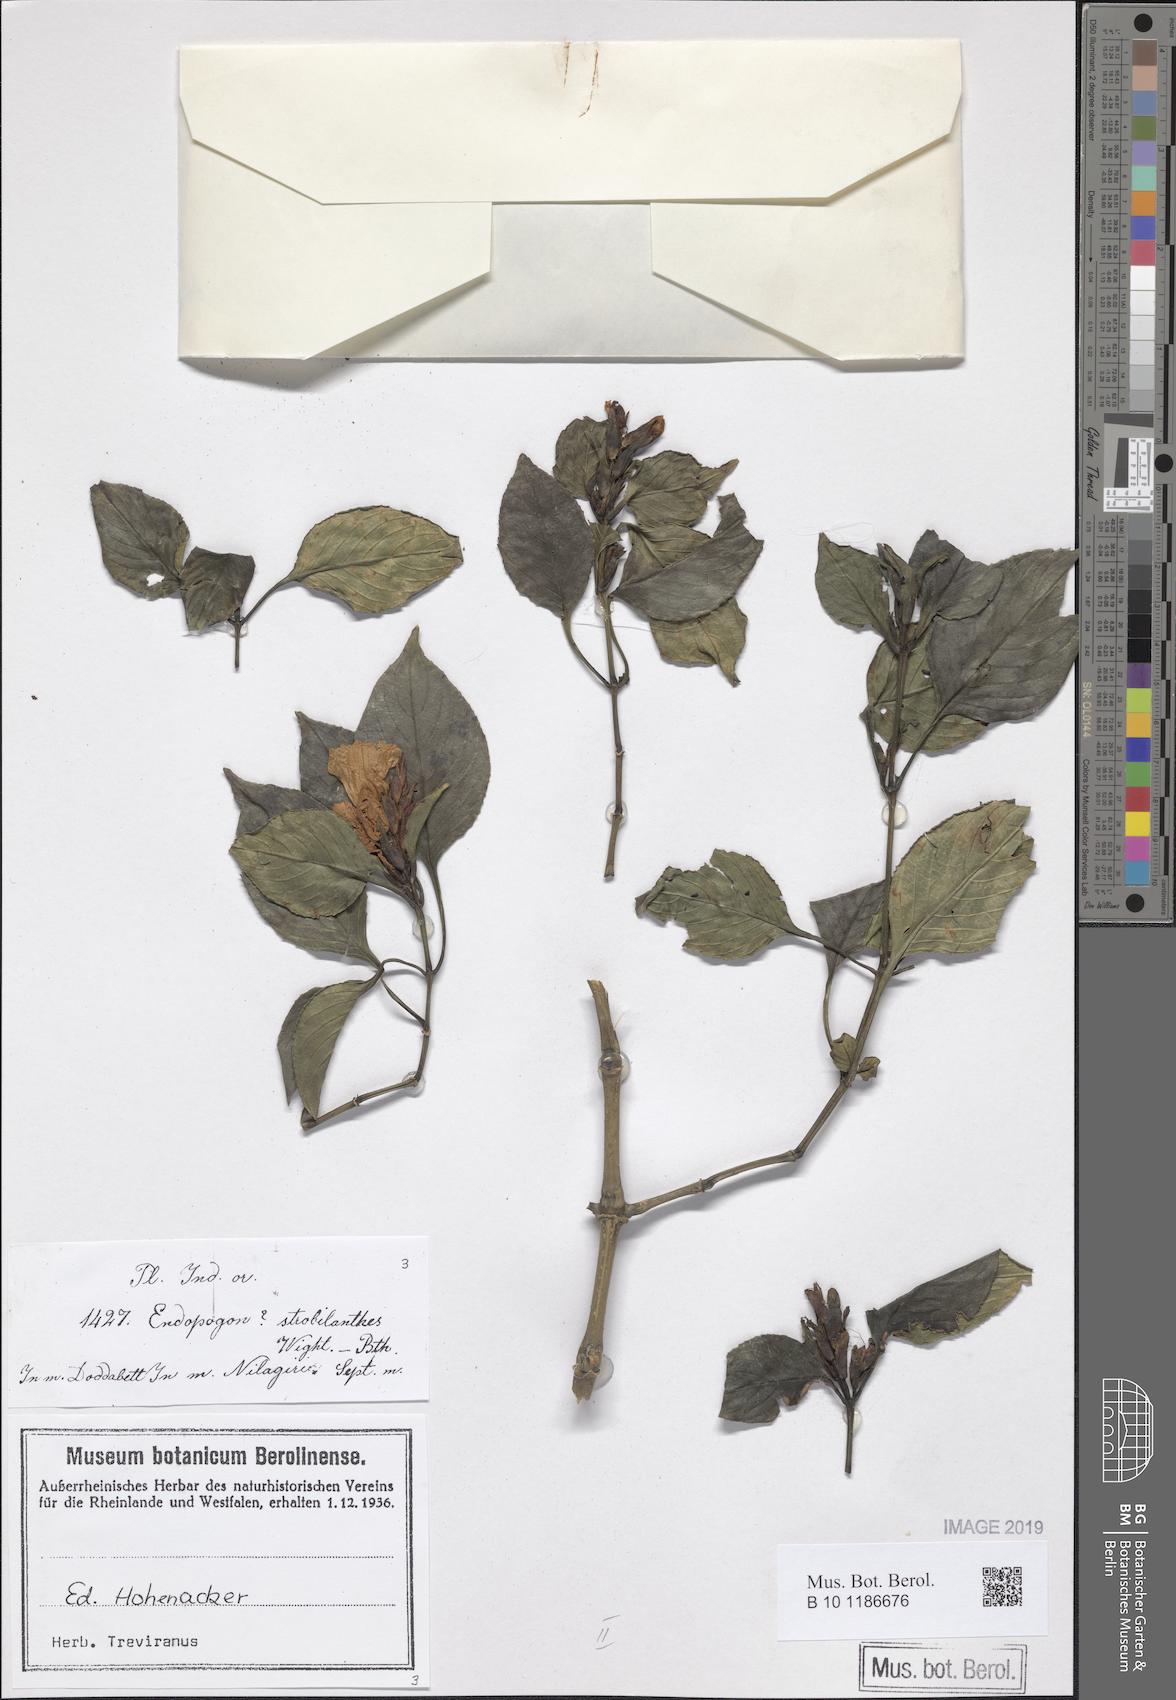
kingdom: Plantae
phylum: Tracheophyta
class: Magnoliopsida
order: Lamiales
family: Acanthaceae
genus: Strobilanthes
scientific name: Strobilanthes zenkeriana
